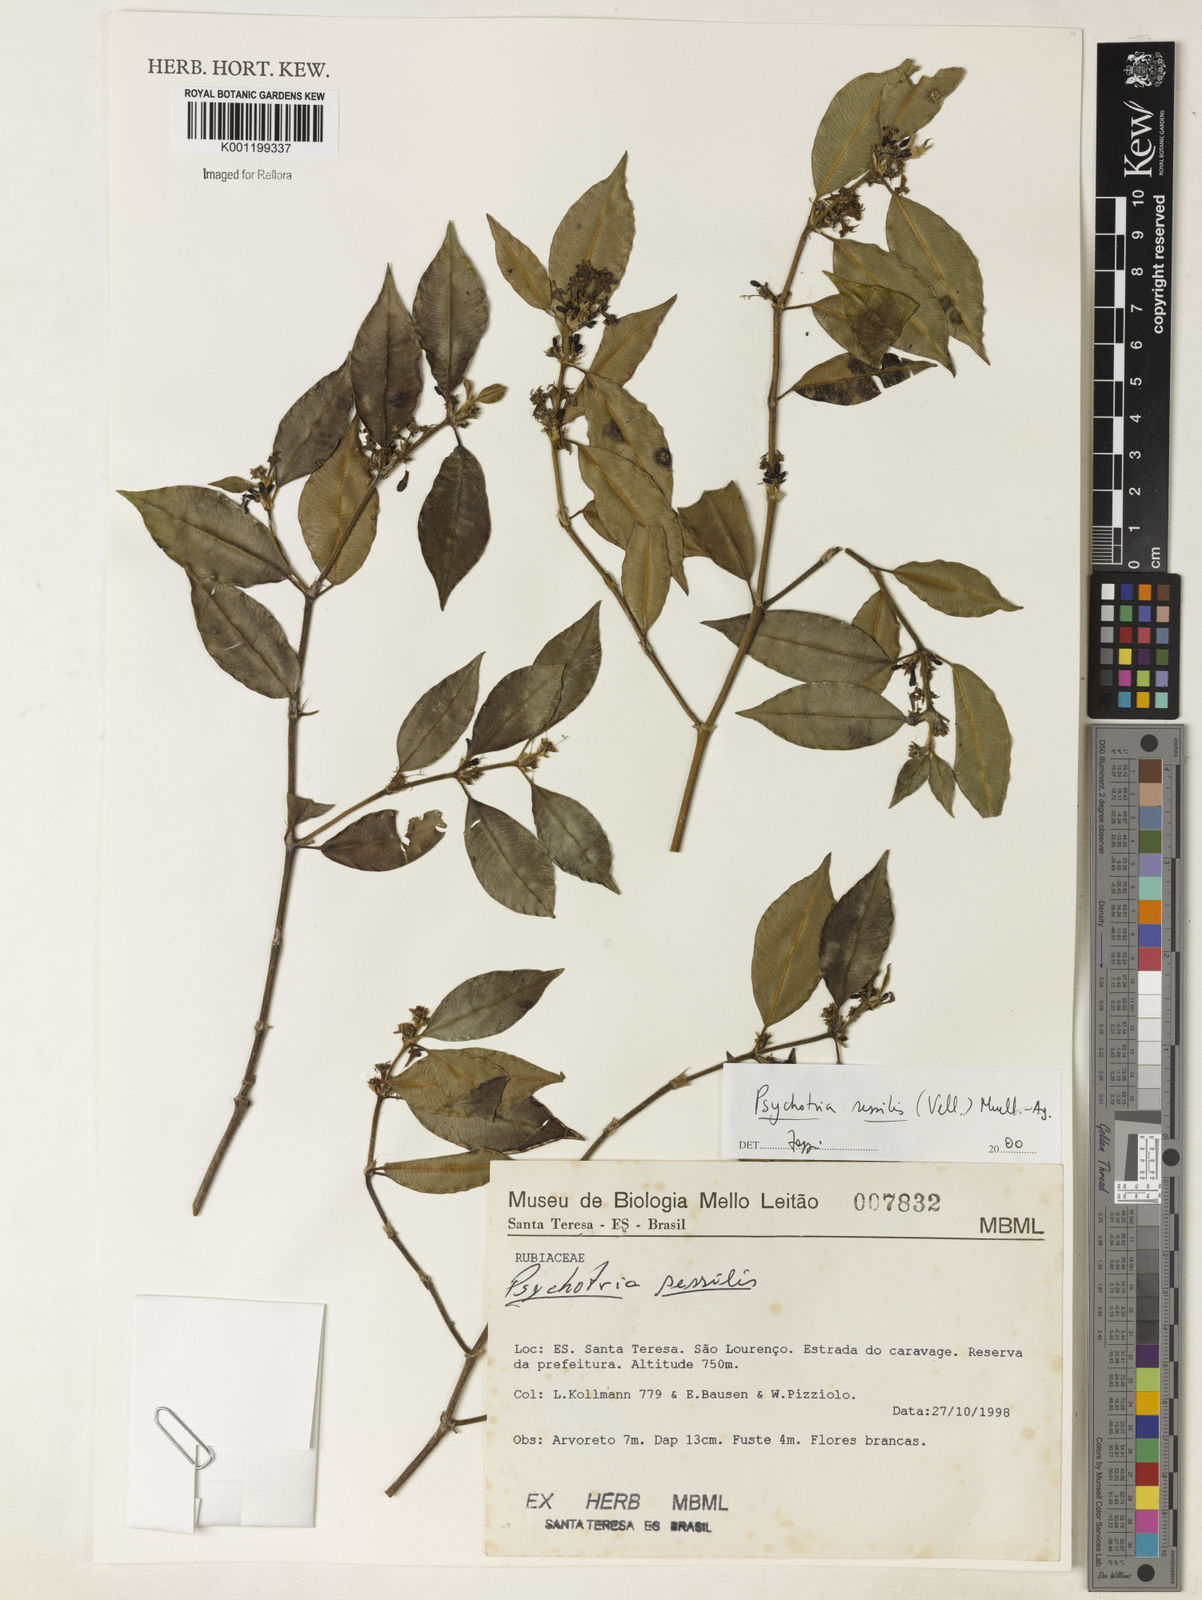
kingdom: Plantae
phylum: Tracheophyta
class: Magnoliopsida
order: Gentianales
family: Rubiaceae
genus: Rudgea
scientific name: Rudgea sessilis
